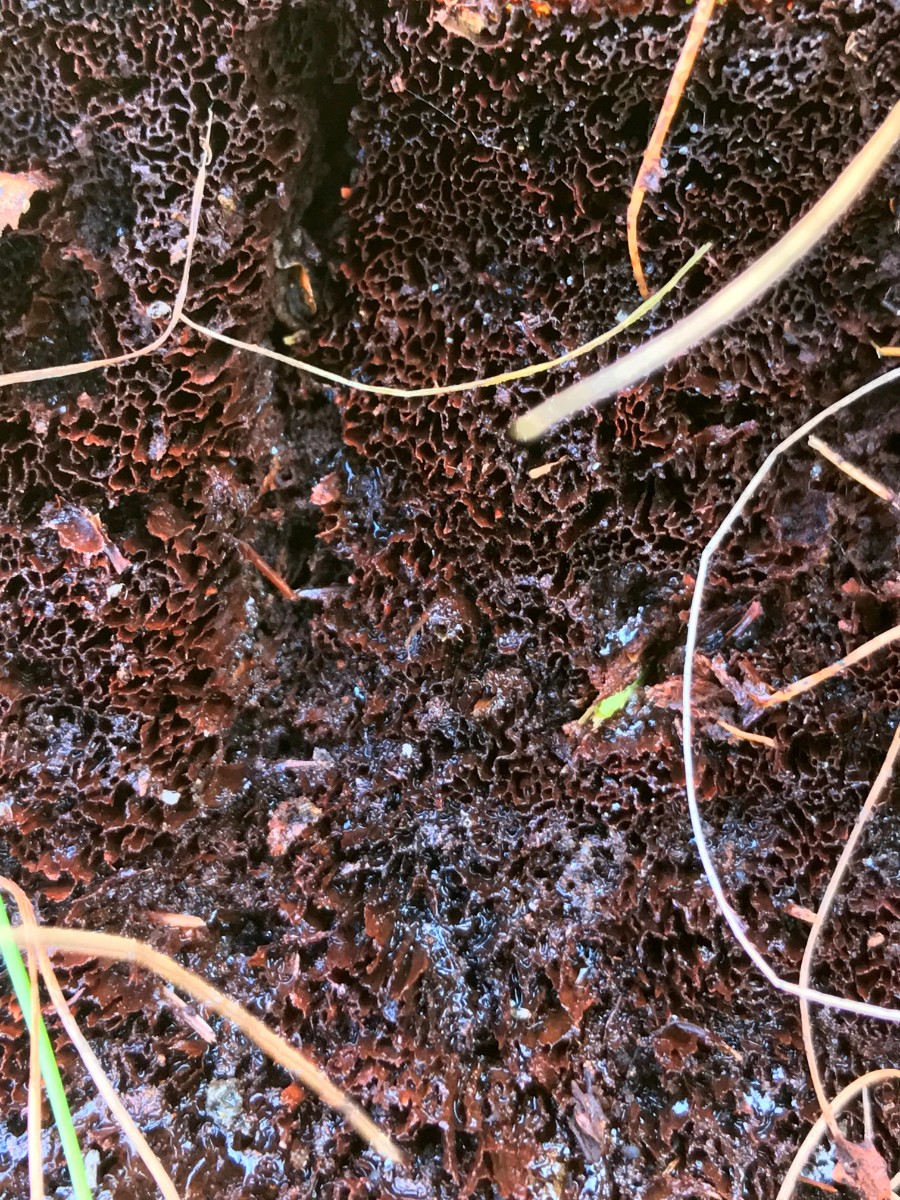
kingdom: Fungi
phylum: Basidiomycota
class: Agaricomycetes
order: Polyporales
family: Laetiporaceae
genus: Phaeolus
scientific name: Phaeolus schweinitzii
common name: brunporesvamp
